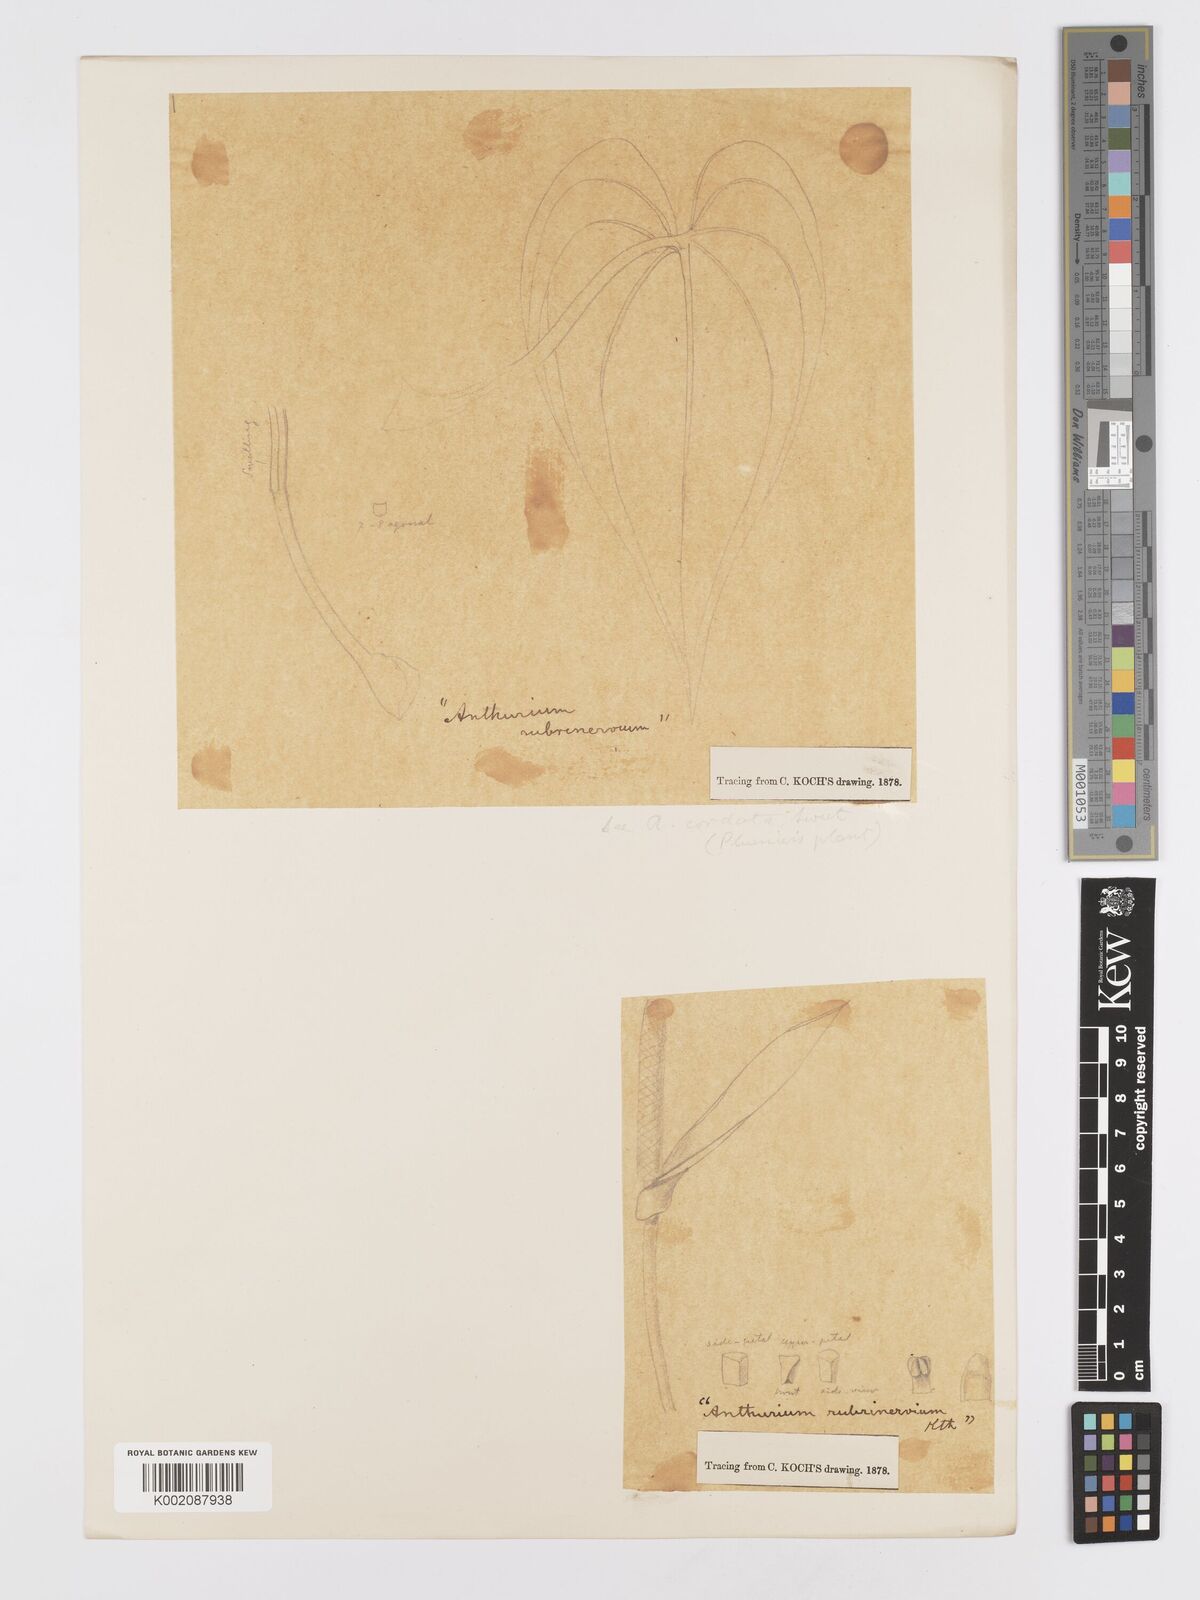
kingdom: Plantae
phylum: Tracheophyta
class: Liliopsida
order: Alismatales
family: Araceae
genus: Anthurium
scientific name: Anthurium sagittatum
